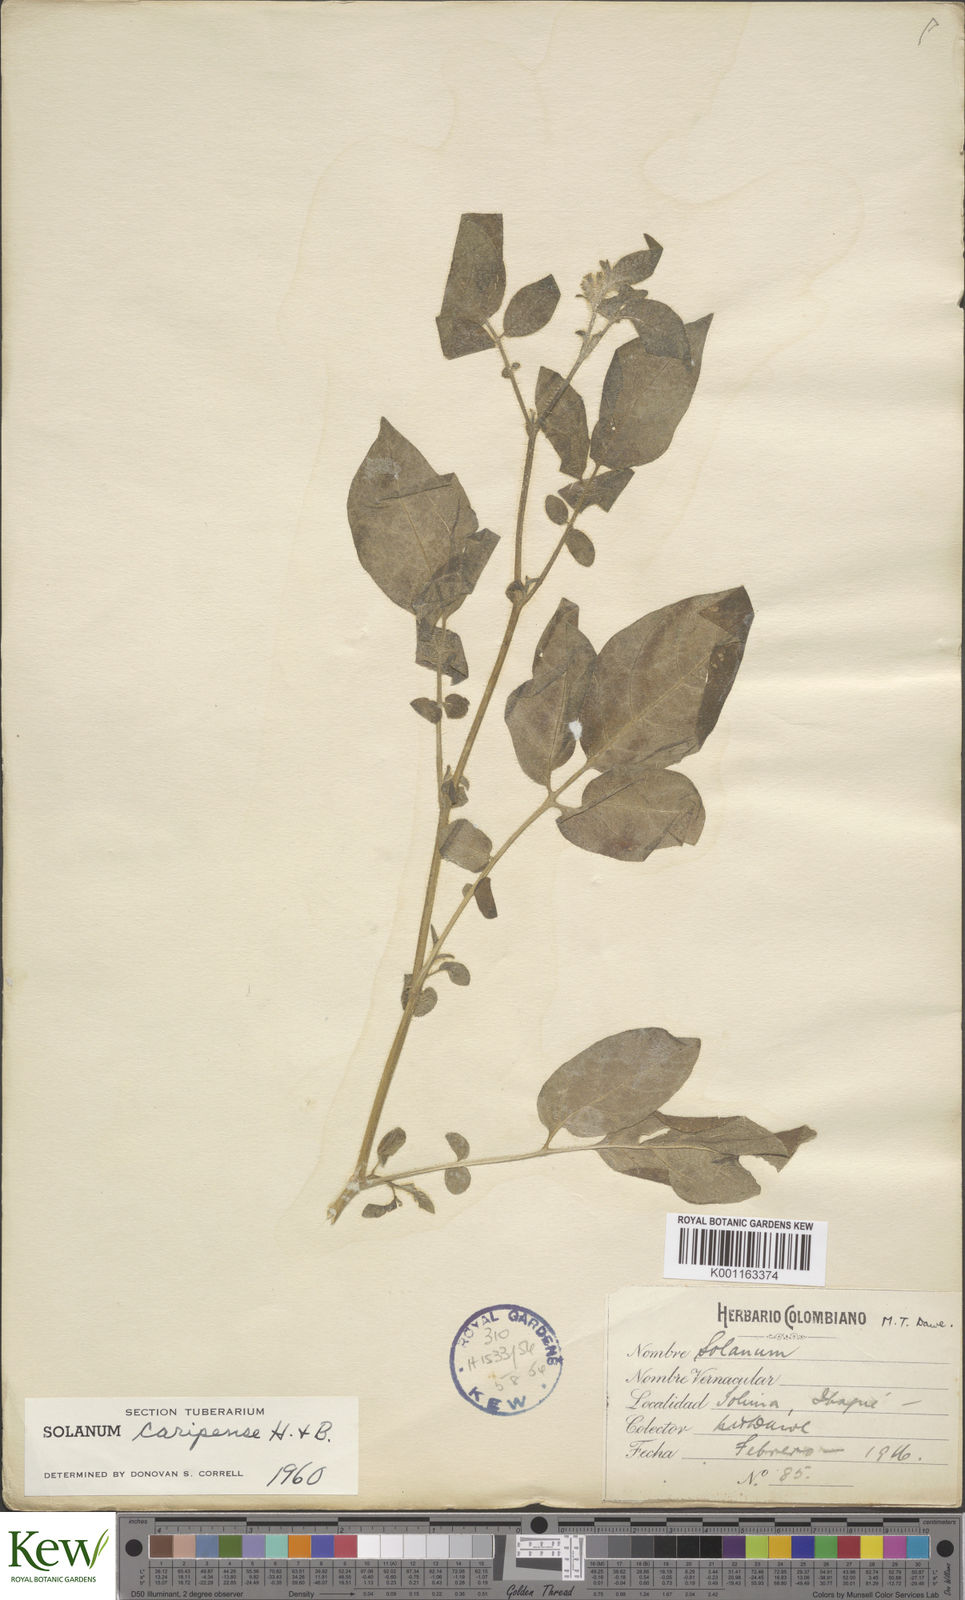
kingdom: Plantae
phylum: Tracheophyta
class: Magnoliopsida
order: Solanales
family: Solanaceae
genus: Solanum
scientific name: Solanum caripense
